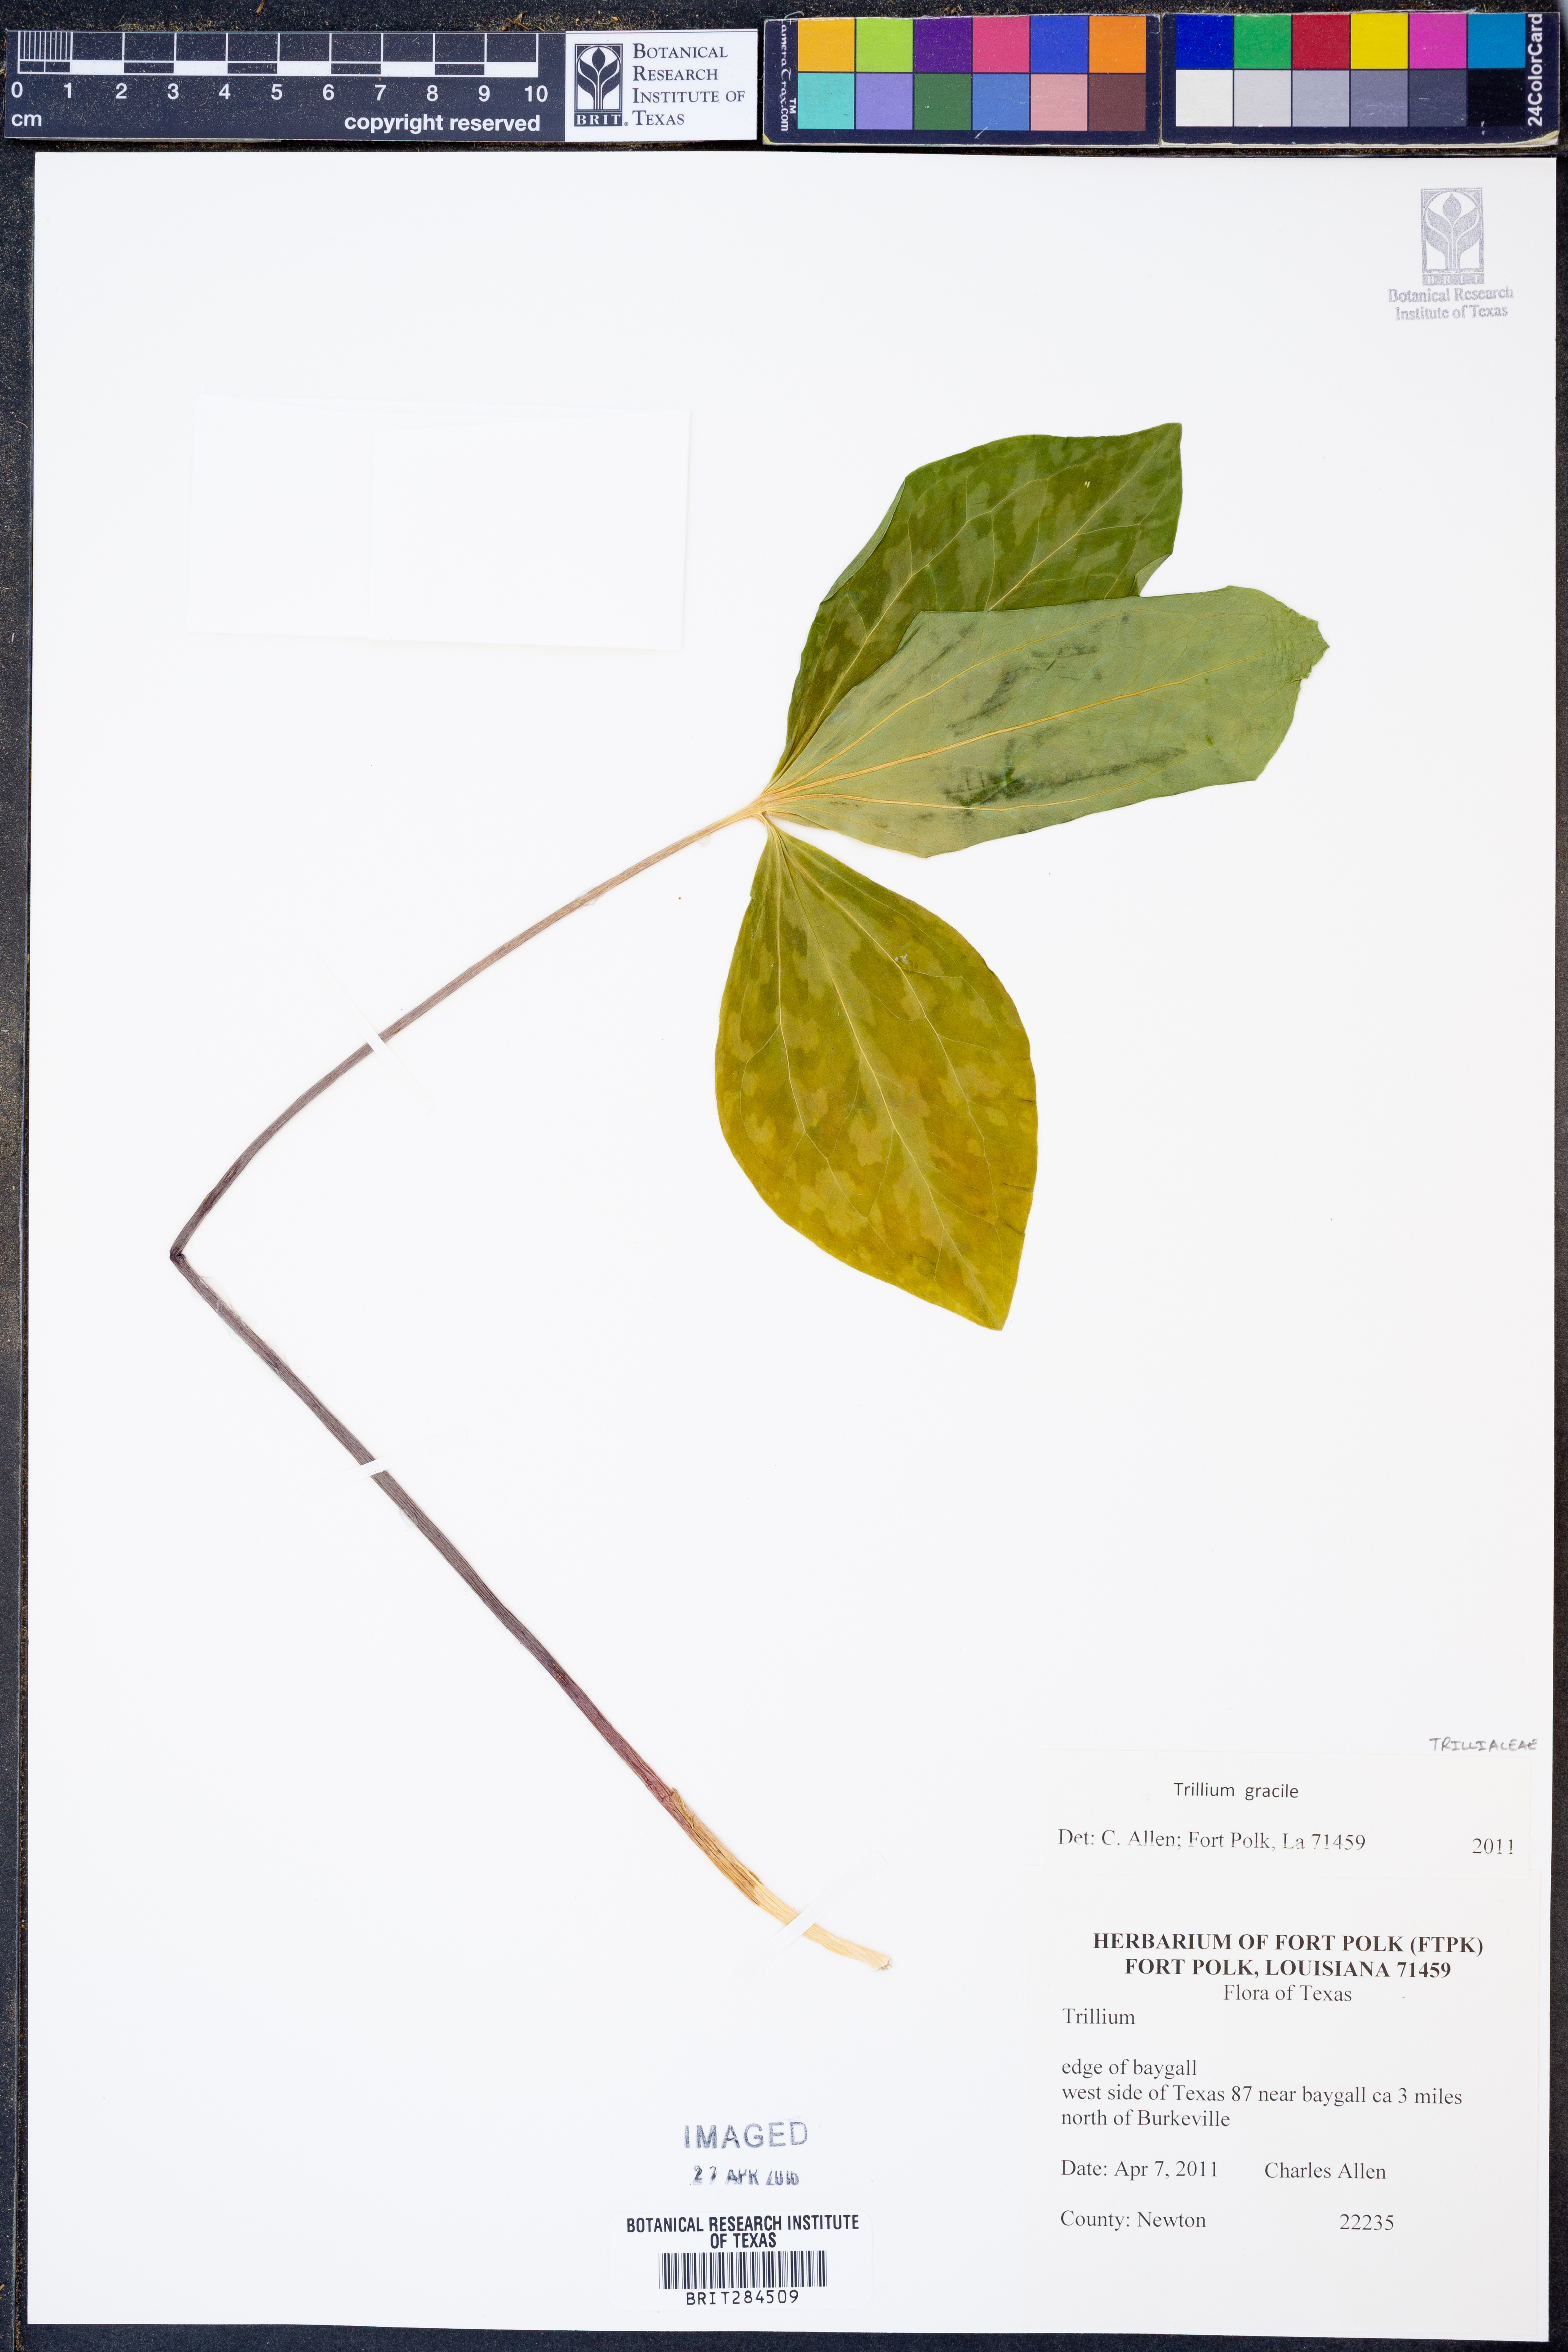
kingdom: Plantae
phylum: Tracheophyta
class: Liliopsida
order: Liliales
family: Melanthiaceae
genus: Trillium
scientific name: Trillium gracile
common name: Graceful trillium
